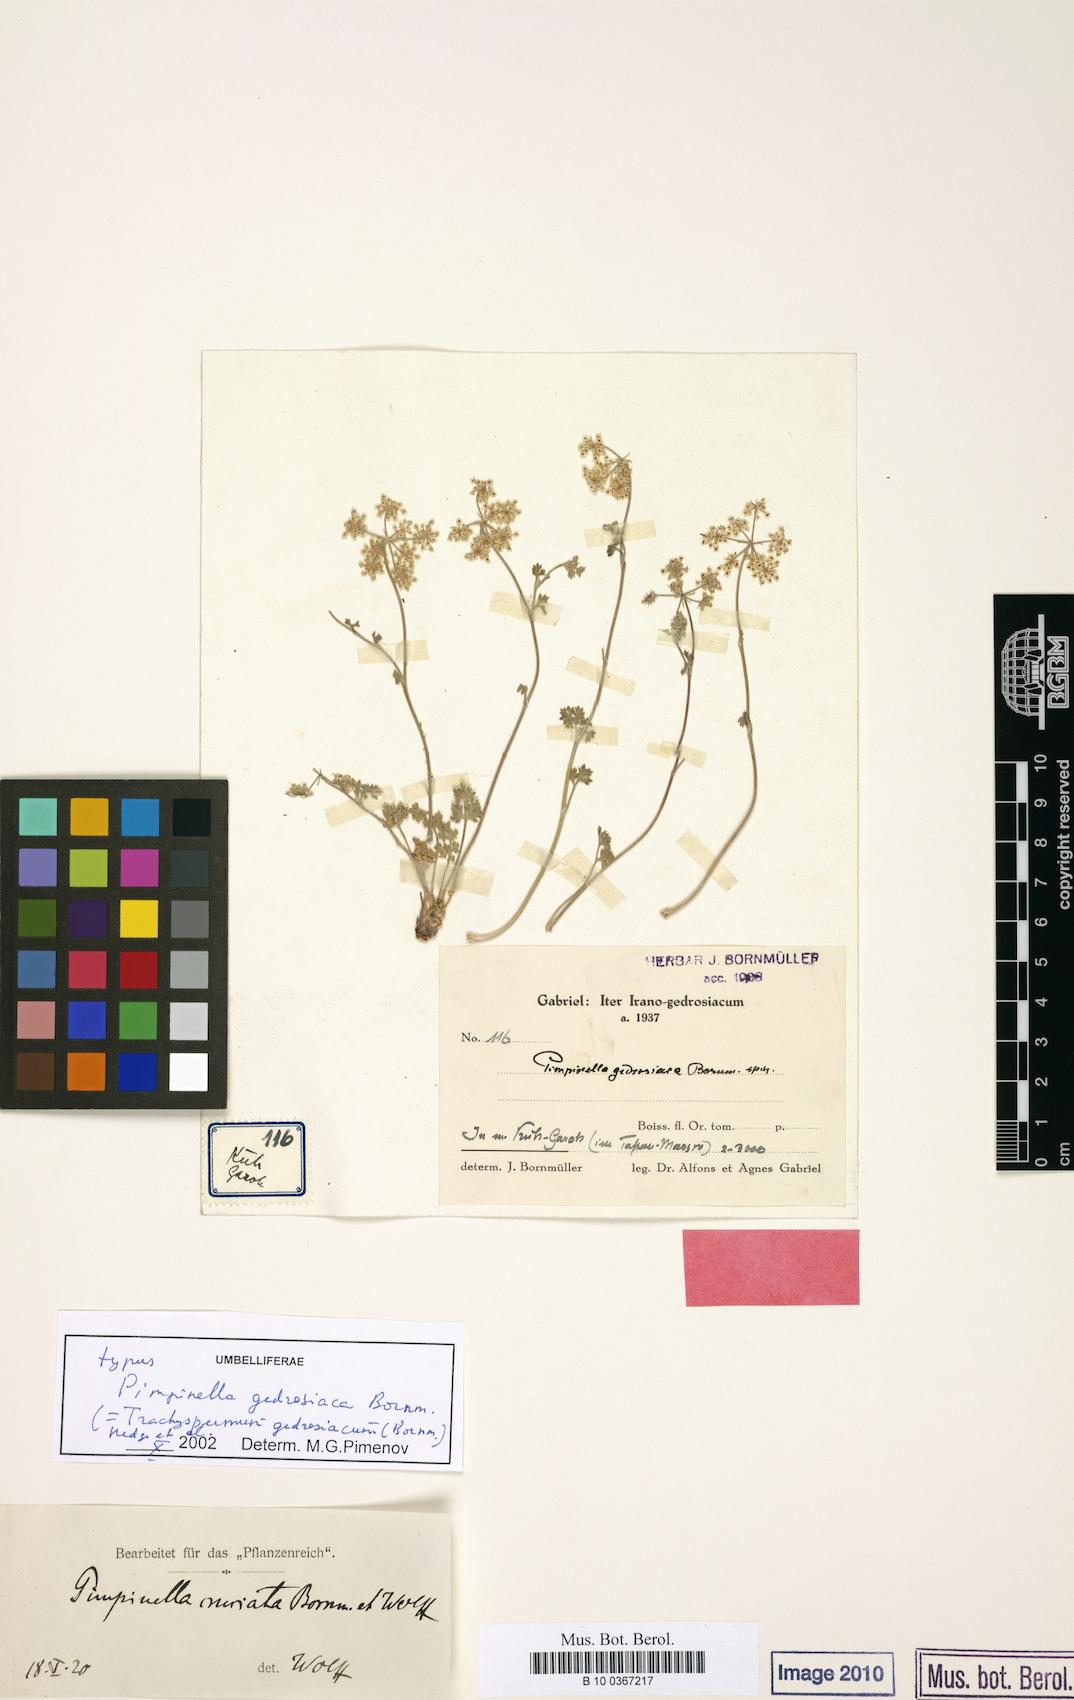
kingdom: Plantae
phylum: Tracheophyta
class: Magnoliopsida
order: Apiales
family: Apiaceae
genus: Trachyspermum
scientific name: Trachyspermum gedrosiacum
